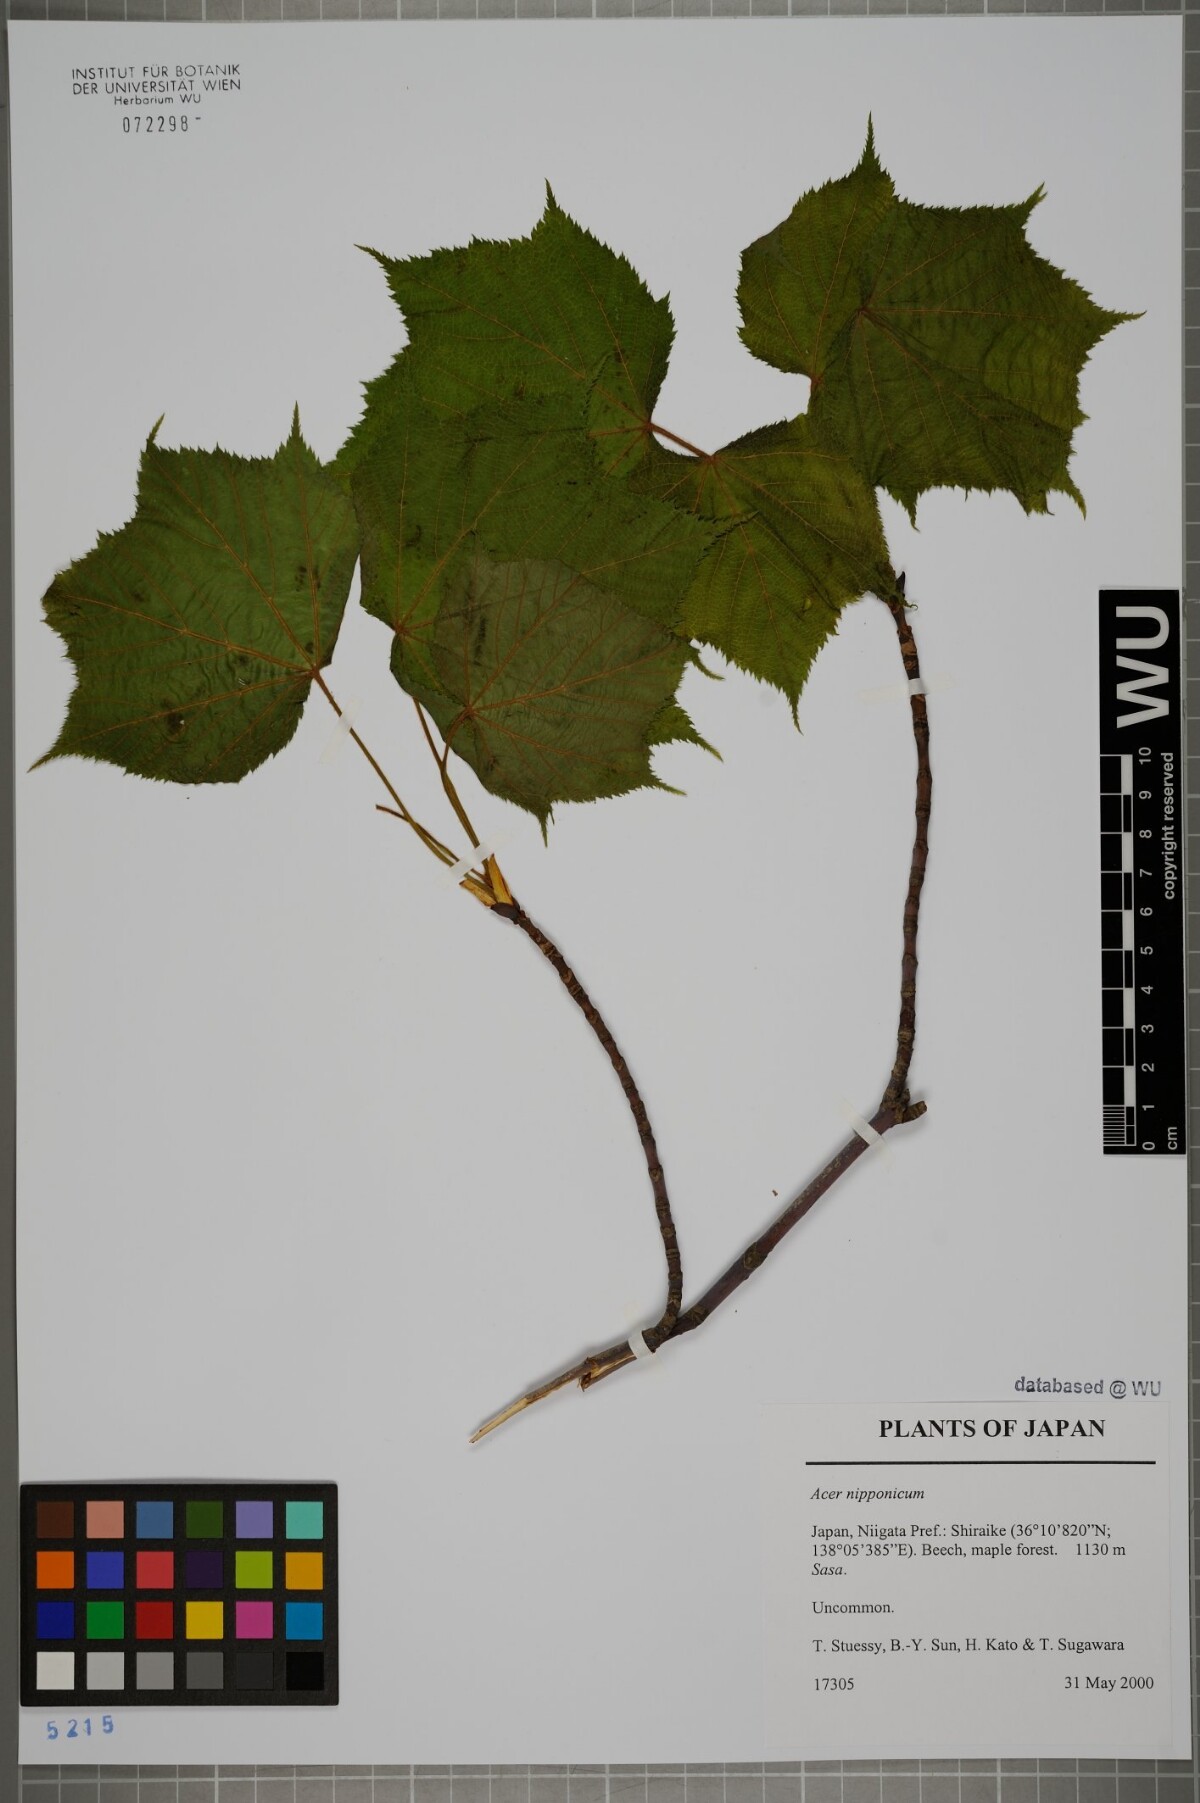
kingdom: Plantae
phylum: Tracheophyta
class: Magnoliopsida
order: Sapindales
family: Sapindaceae
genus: Acer
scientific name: Acer tschonoskii
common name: Tschonoski’s maple
